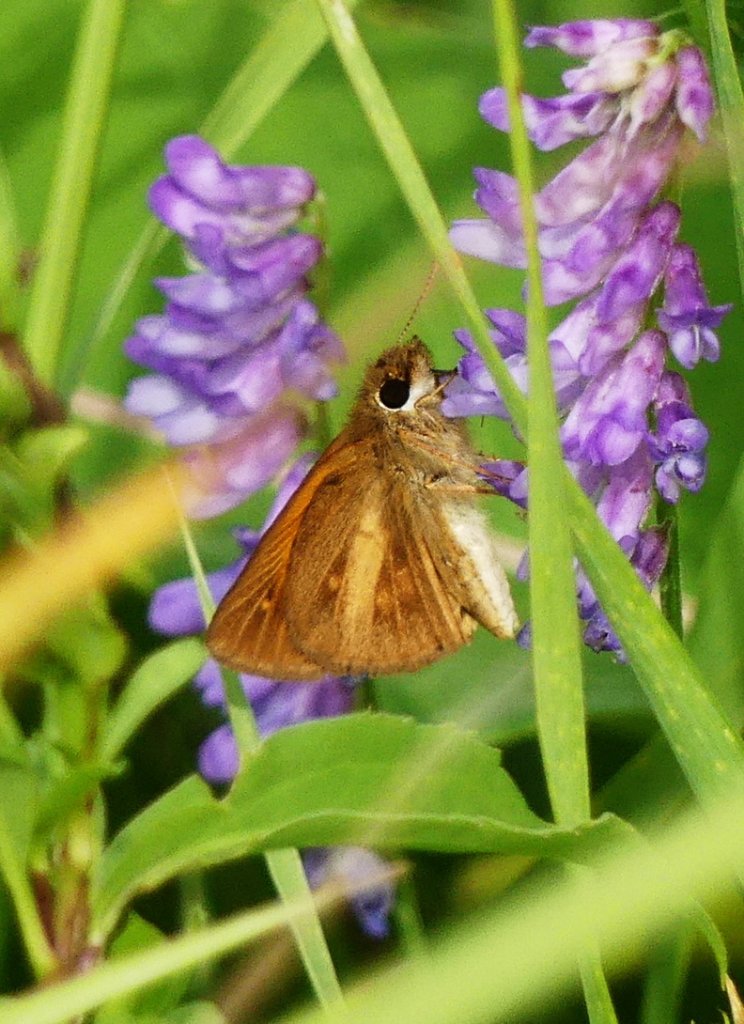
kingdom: Animalia
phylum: Arthropoda
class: Insecta
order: Lepidoptera
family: Hesperiidae
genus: Poanes
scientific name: Poanes viator
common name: Broad-winged Skipper
